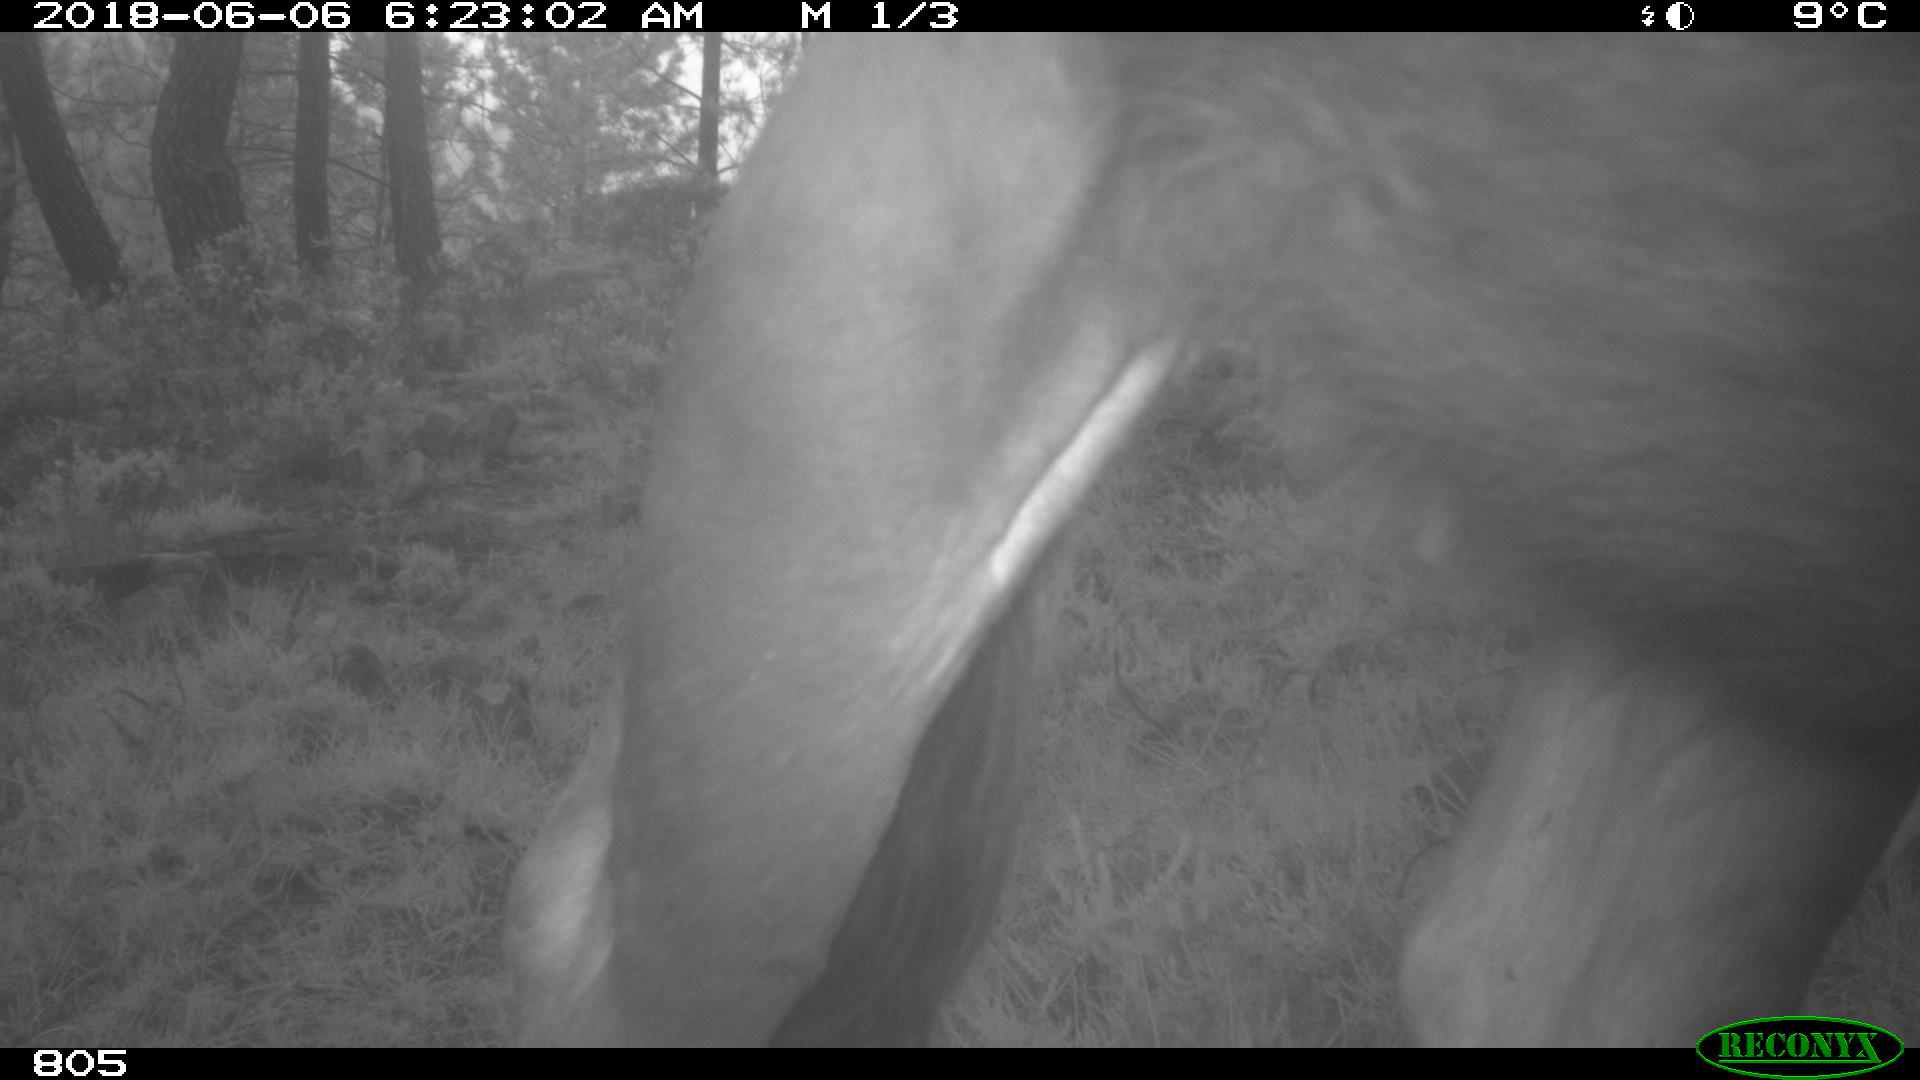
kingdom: Animalia
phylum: Chordata
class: Mammalia
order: Artiodactyla
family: Bovidae
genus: Bos
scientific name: Bos taurus
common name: Domesticated cattle
